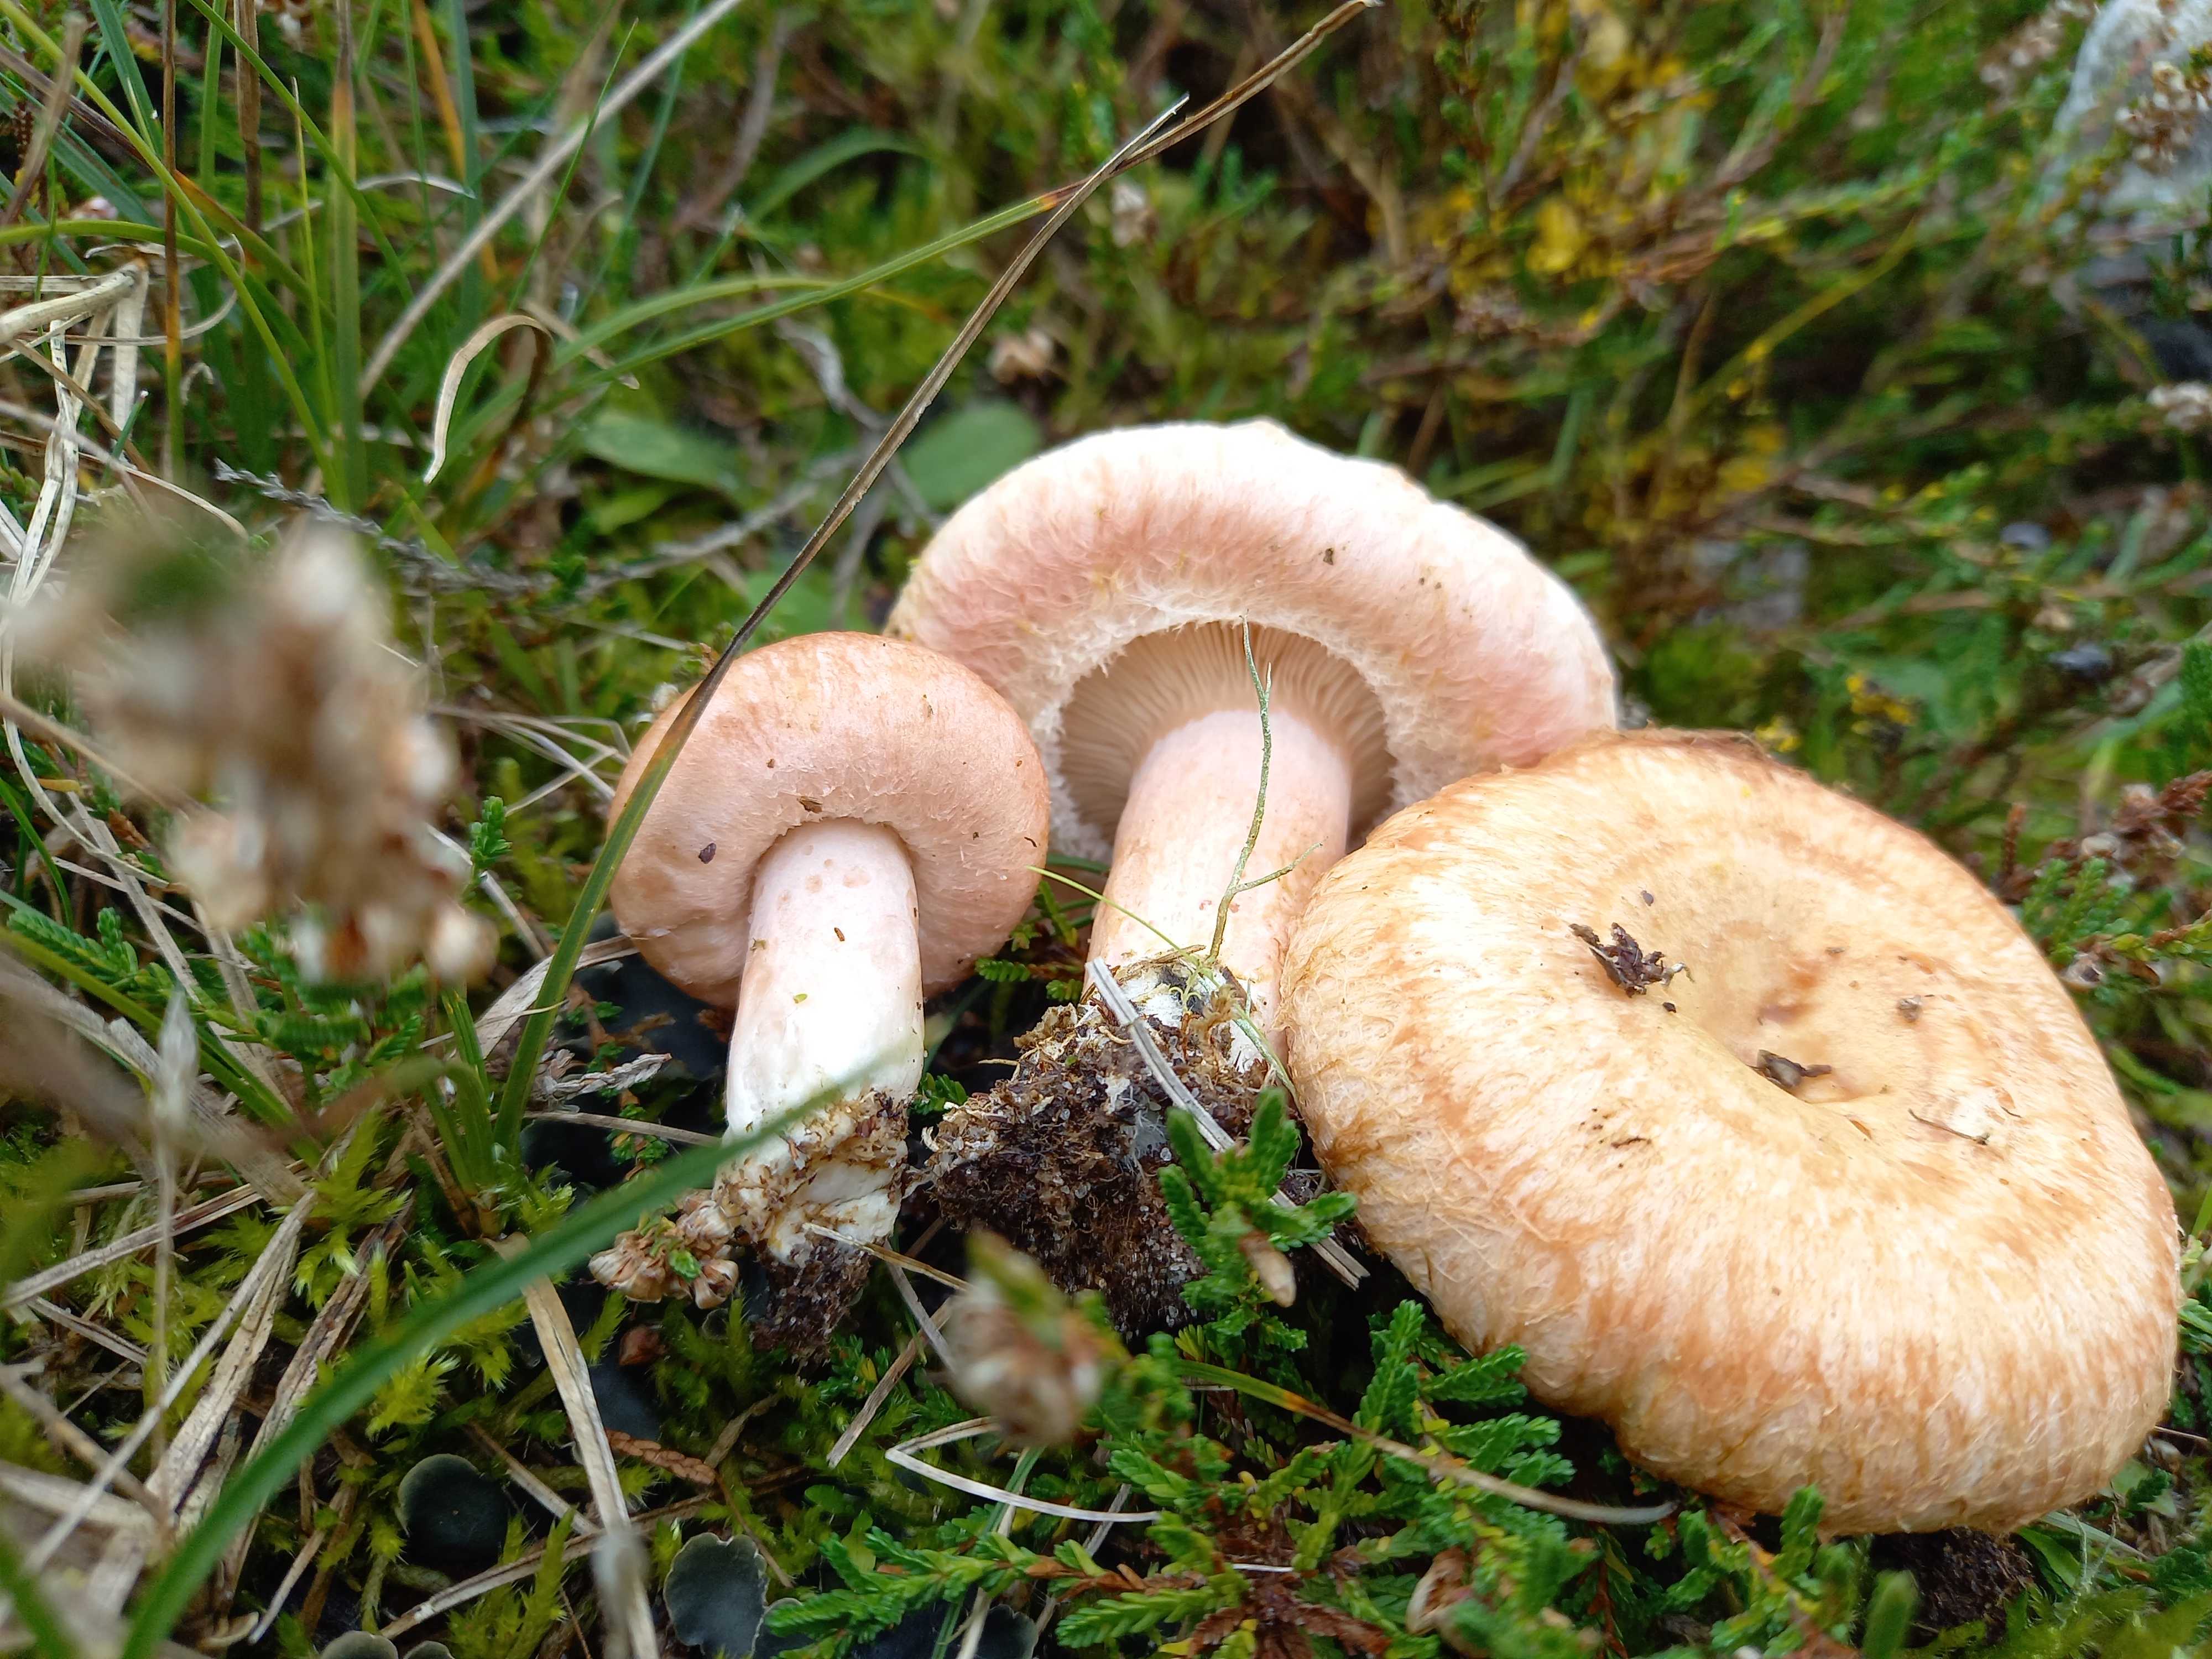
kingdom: Fungi
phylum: Basidiomycota
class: Agaricomycetes
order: Russulales
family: Russulaceae
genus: Lactarius
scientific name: Lactarius torminosus
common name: skægget mælkehat
